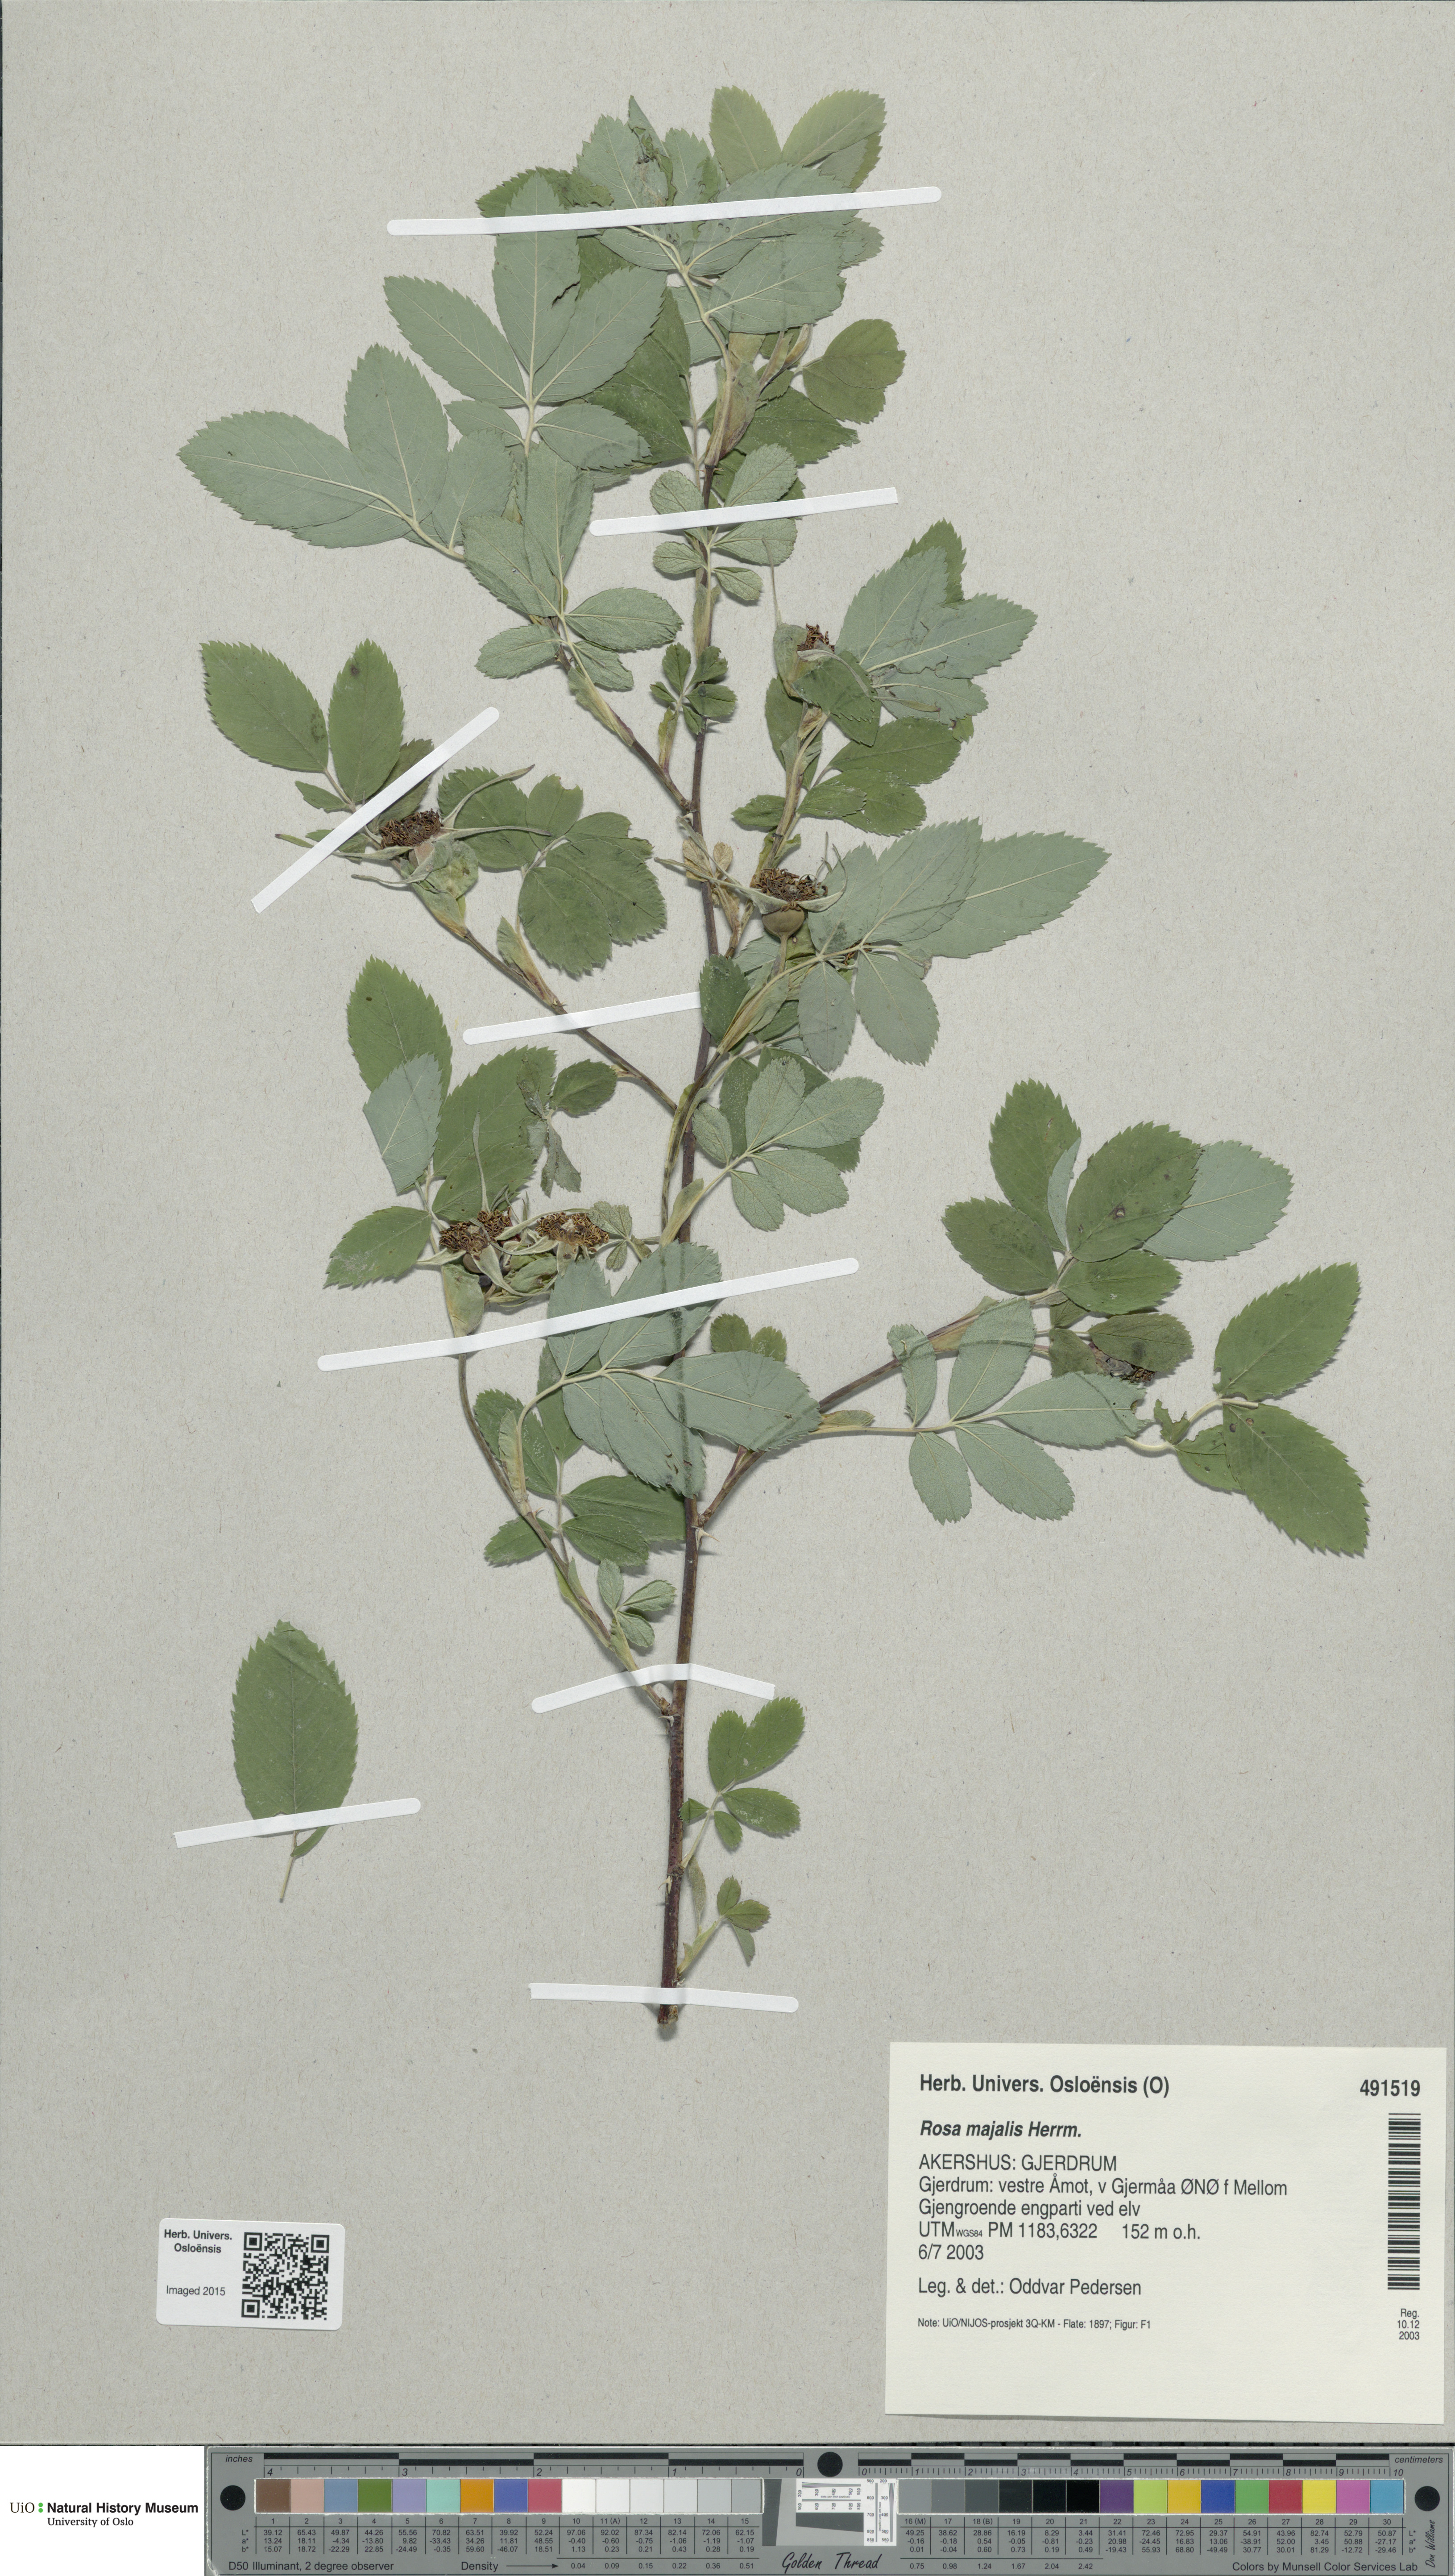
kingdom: Plantae
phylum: Tracheophyta
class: Magnoliopsida
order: Rosales
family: Rosaceae
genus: Rosa
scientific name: Rosa majalis
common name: Cinnamon rose
